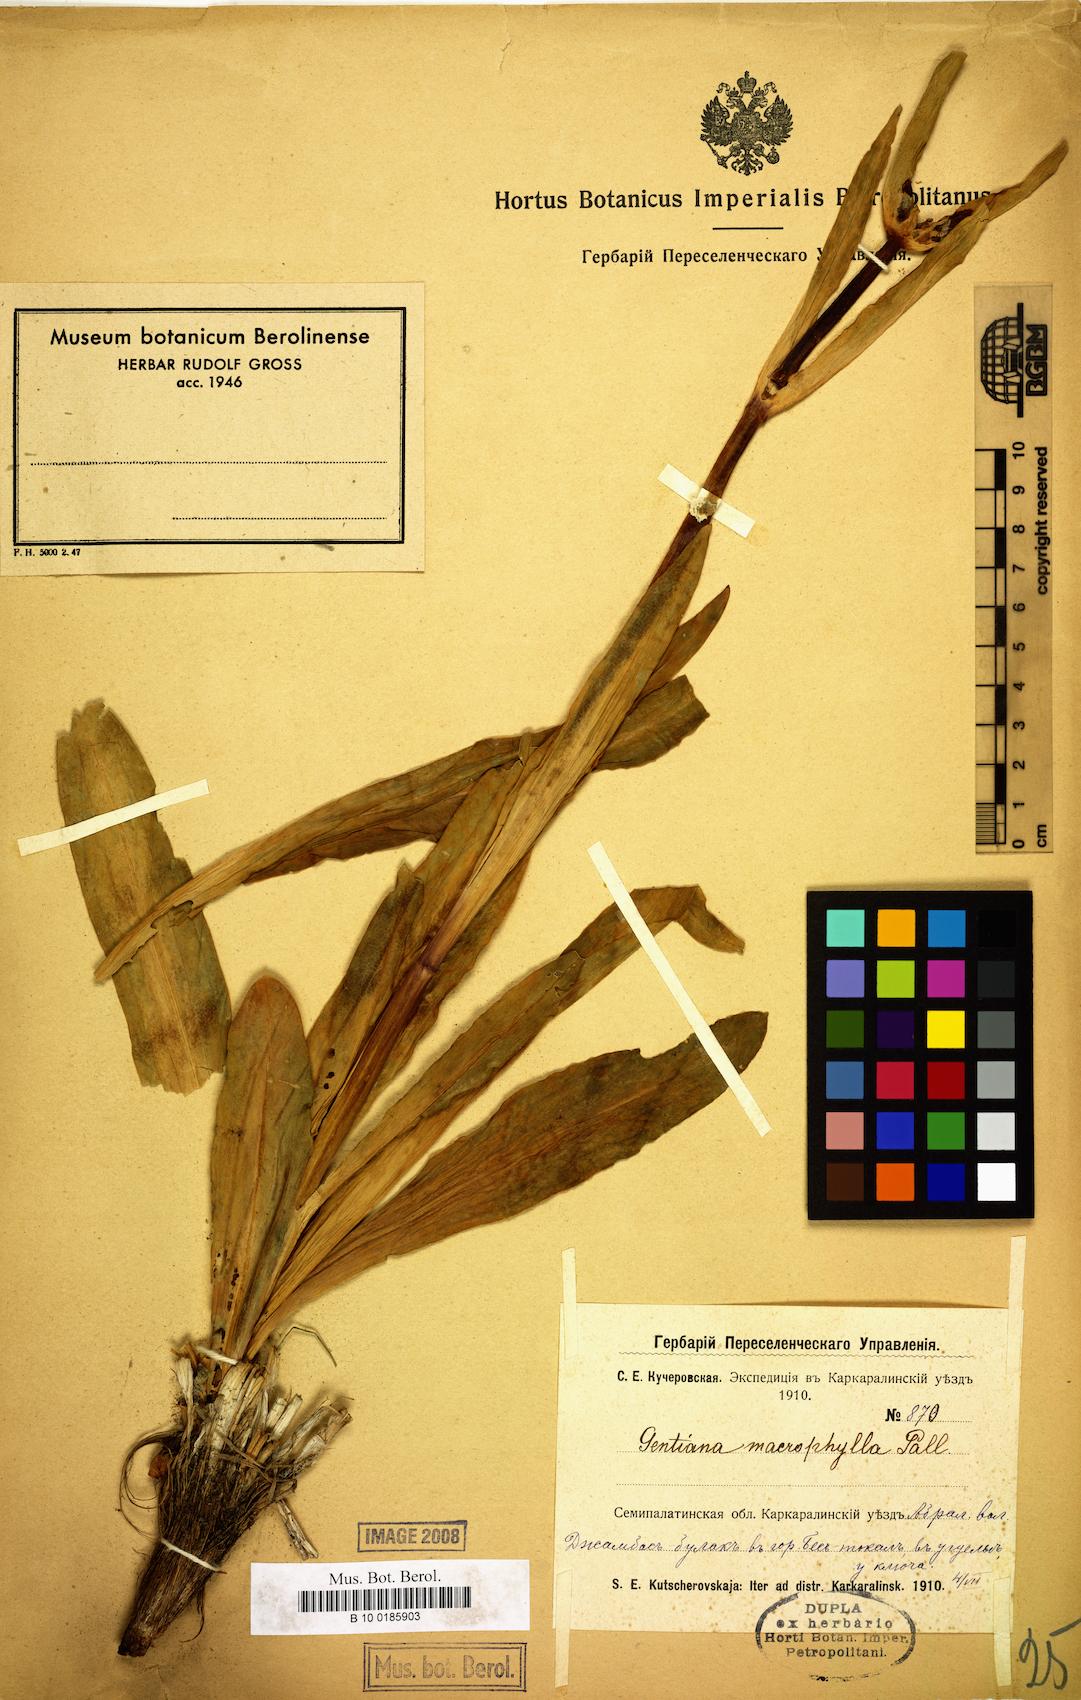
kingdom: Plantae
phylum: Tracheophyta
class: Magnoliopsida
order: Gentianales
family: Gentianaceae
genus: Gentiana
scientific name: Gentiana macrophylla
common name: Large-leaf gentian
